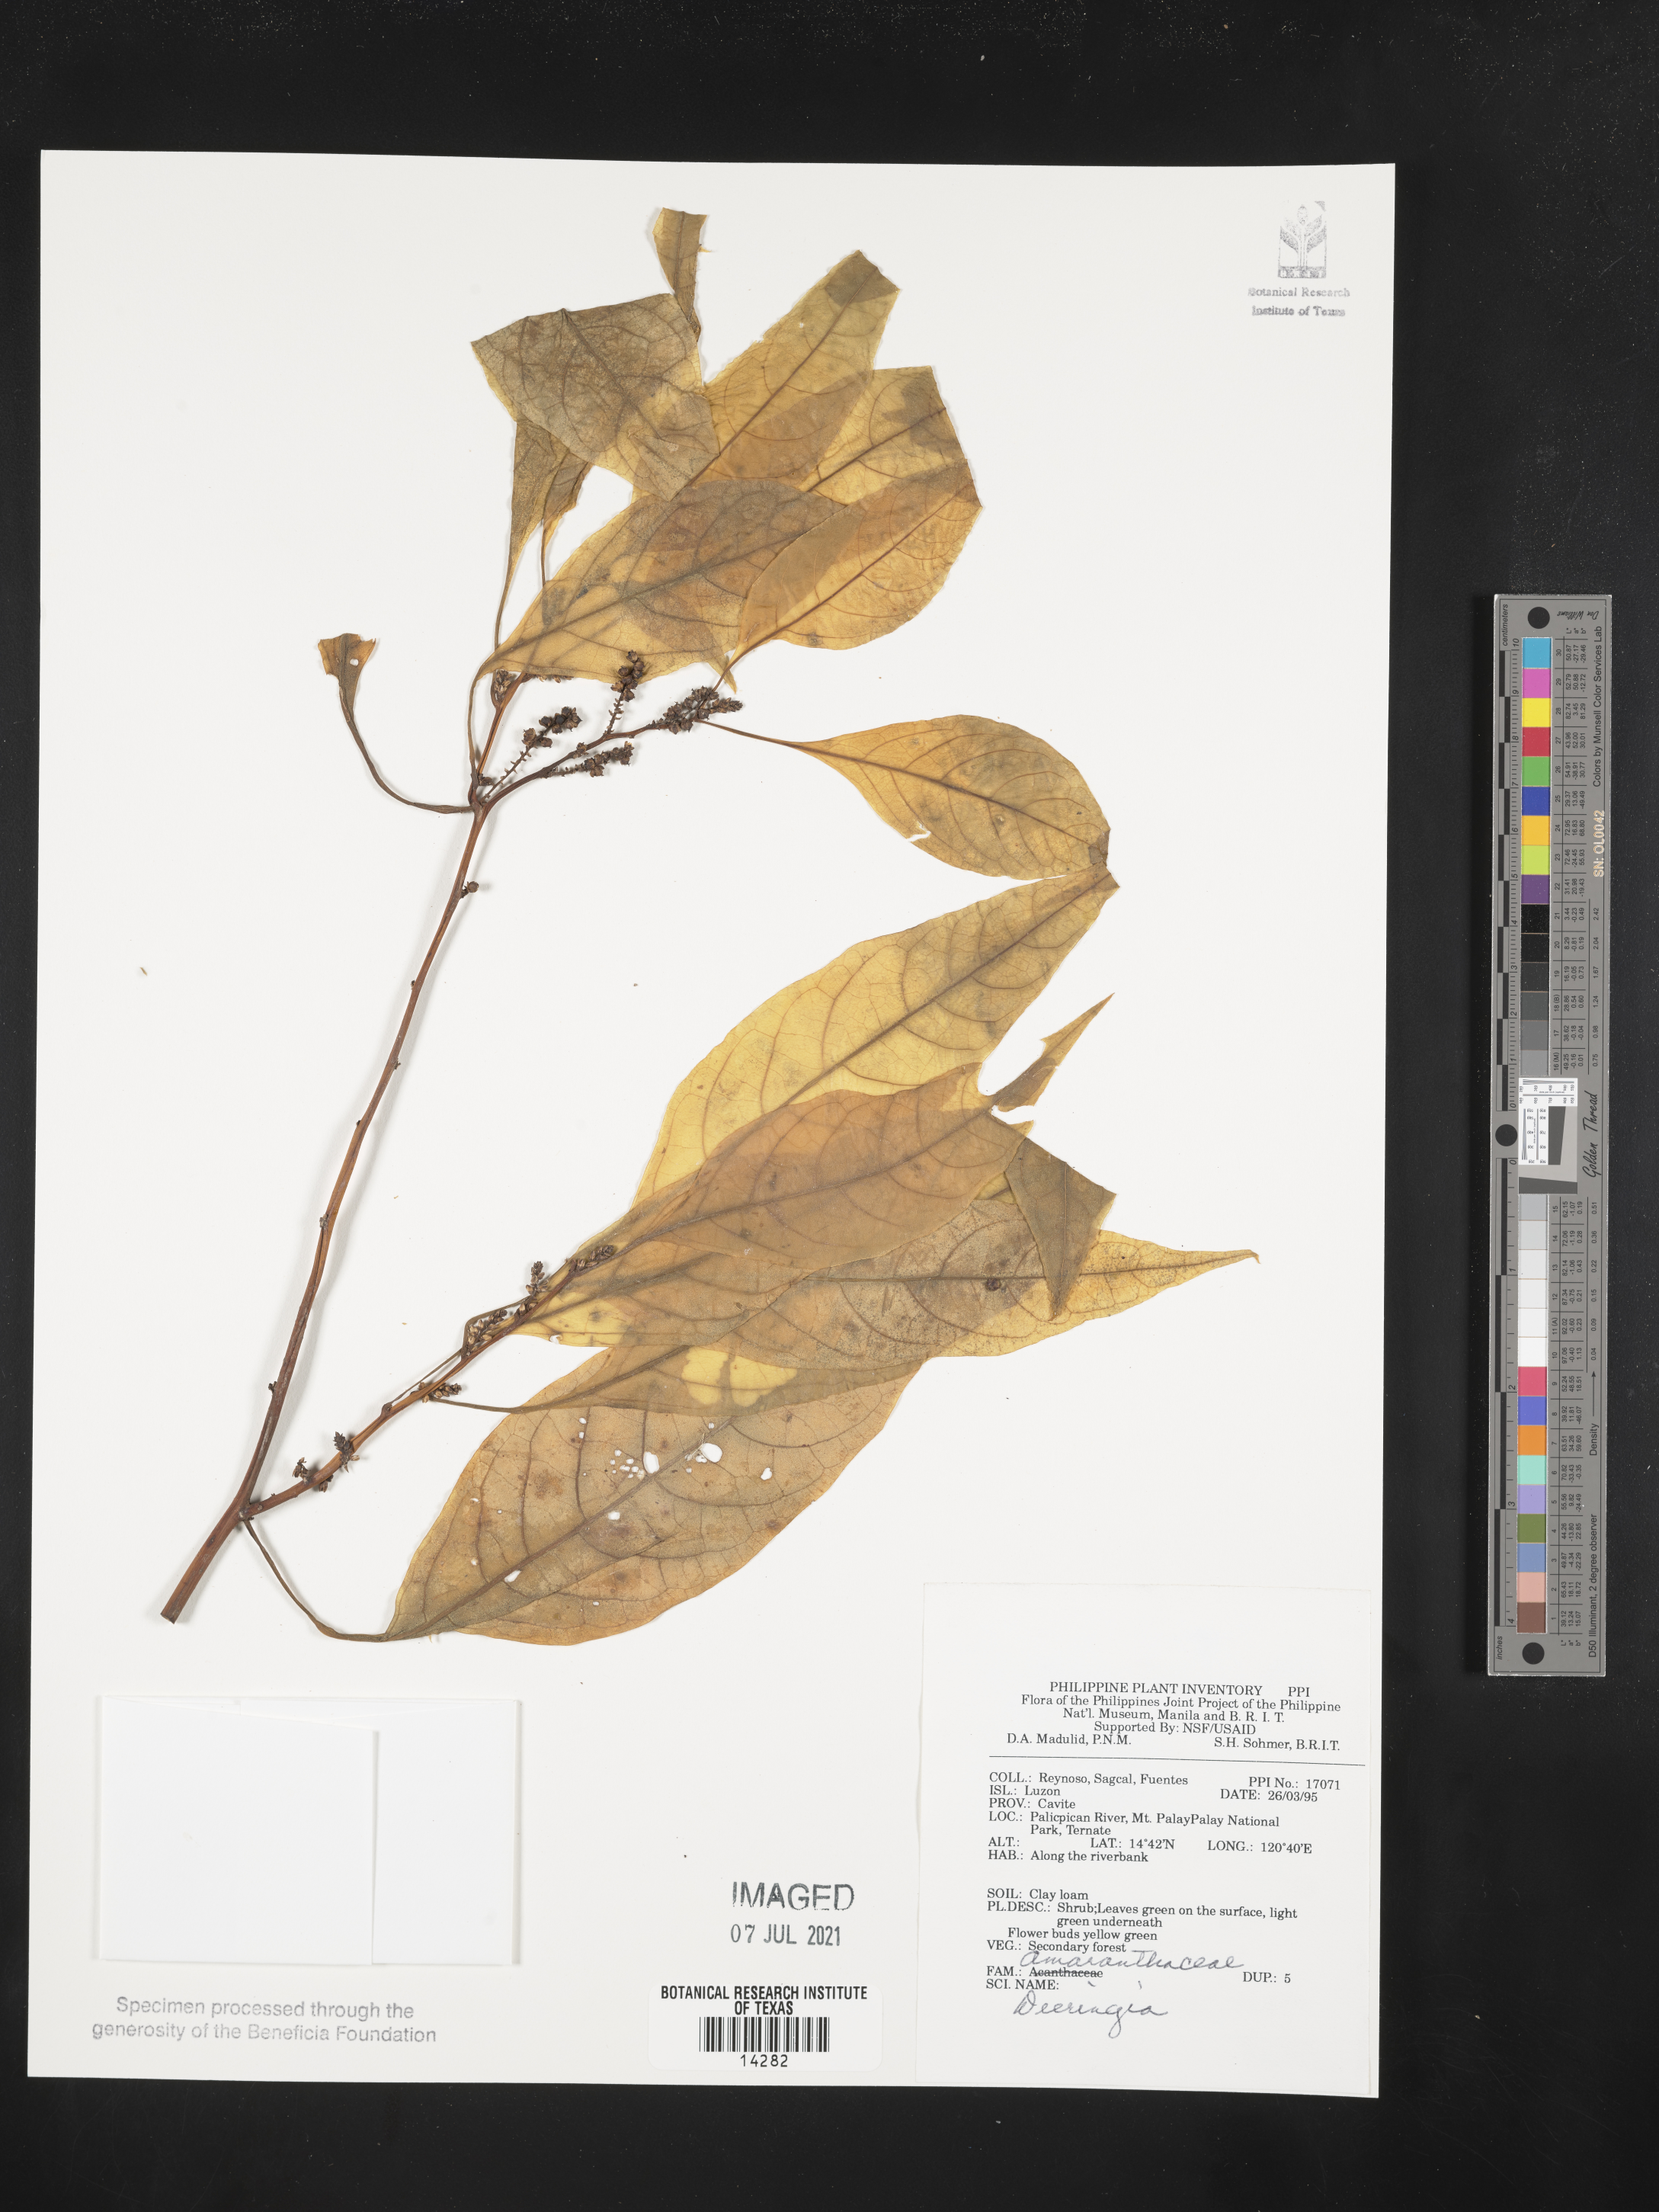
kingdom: Plantae
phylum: Tracheophyta
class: Magnoliopsida
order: Caryophyllales
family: Amaranthaceae
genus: Deeringia
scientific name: Deeringia
